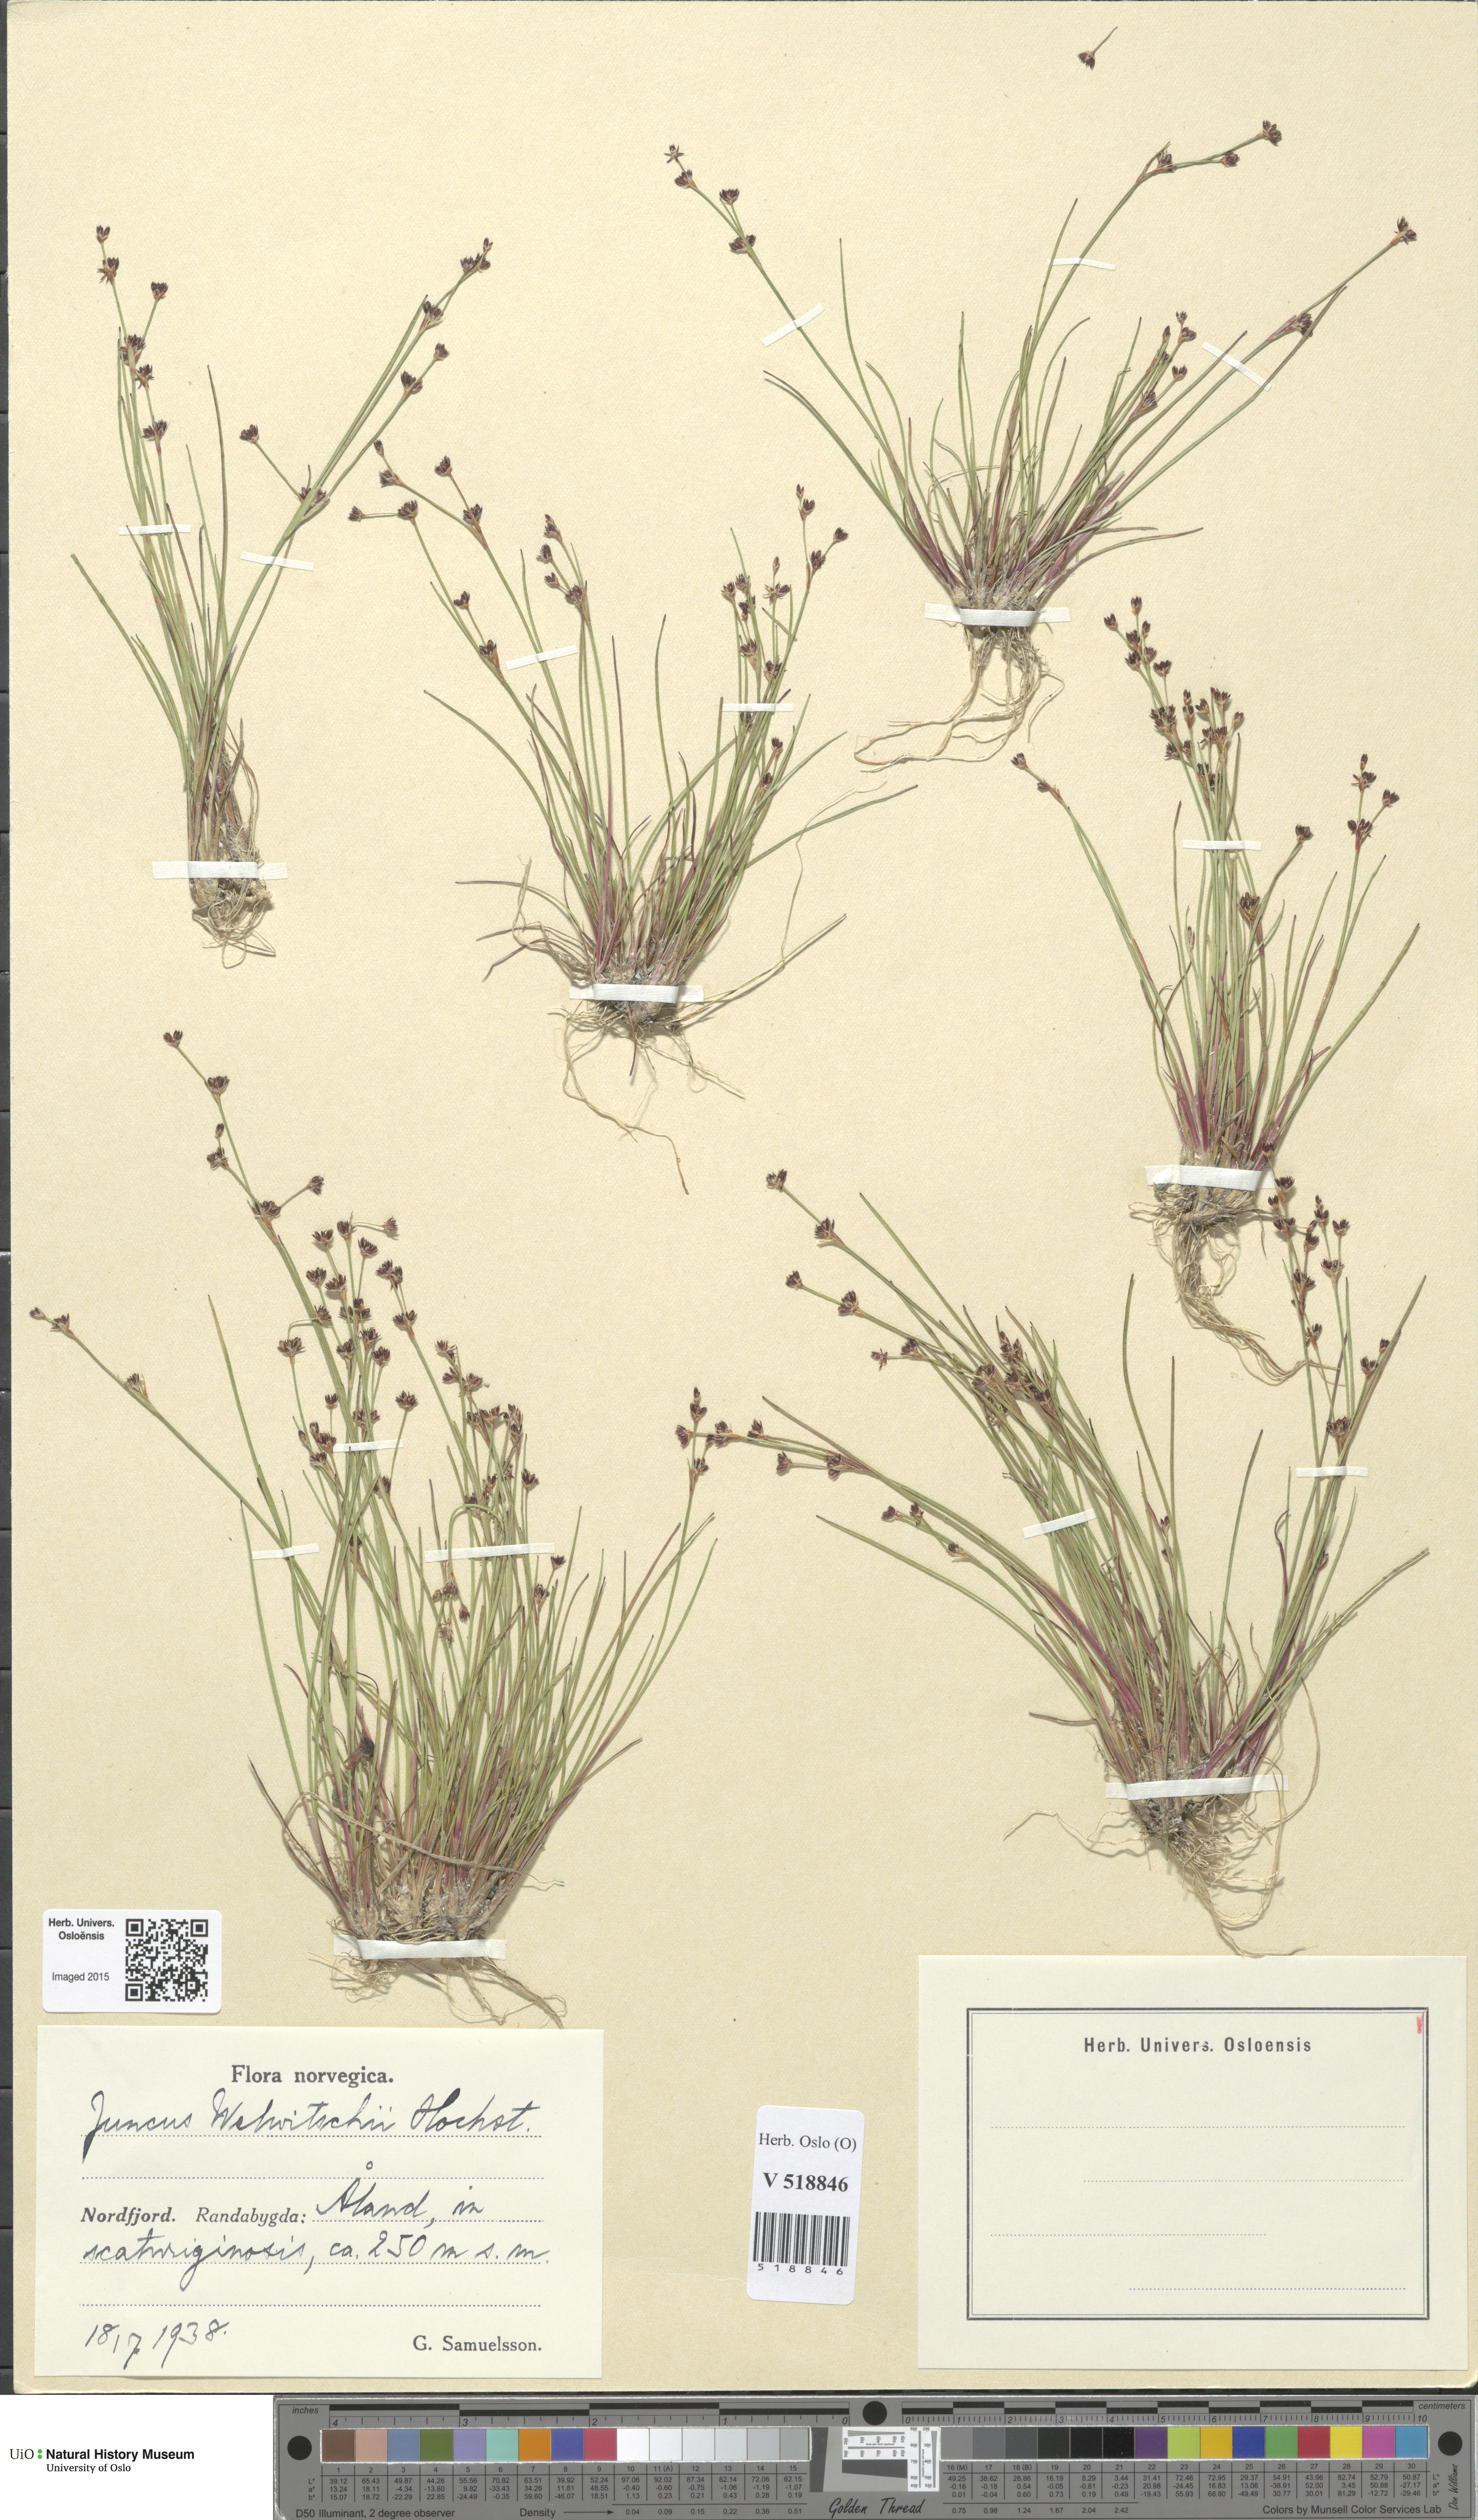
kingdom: Plantae
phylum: Tracheophyta
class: Liliopsida
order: Poales
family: Juncaceae
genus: Juncus
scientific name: Juncus bulbosus
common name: Bulbous rush
